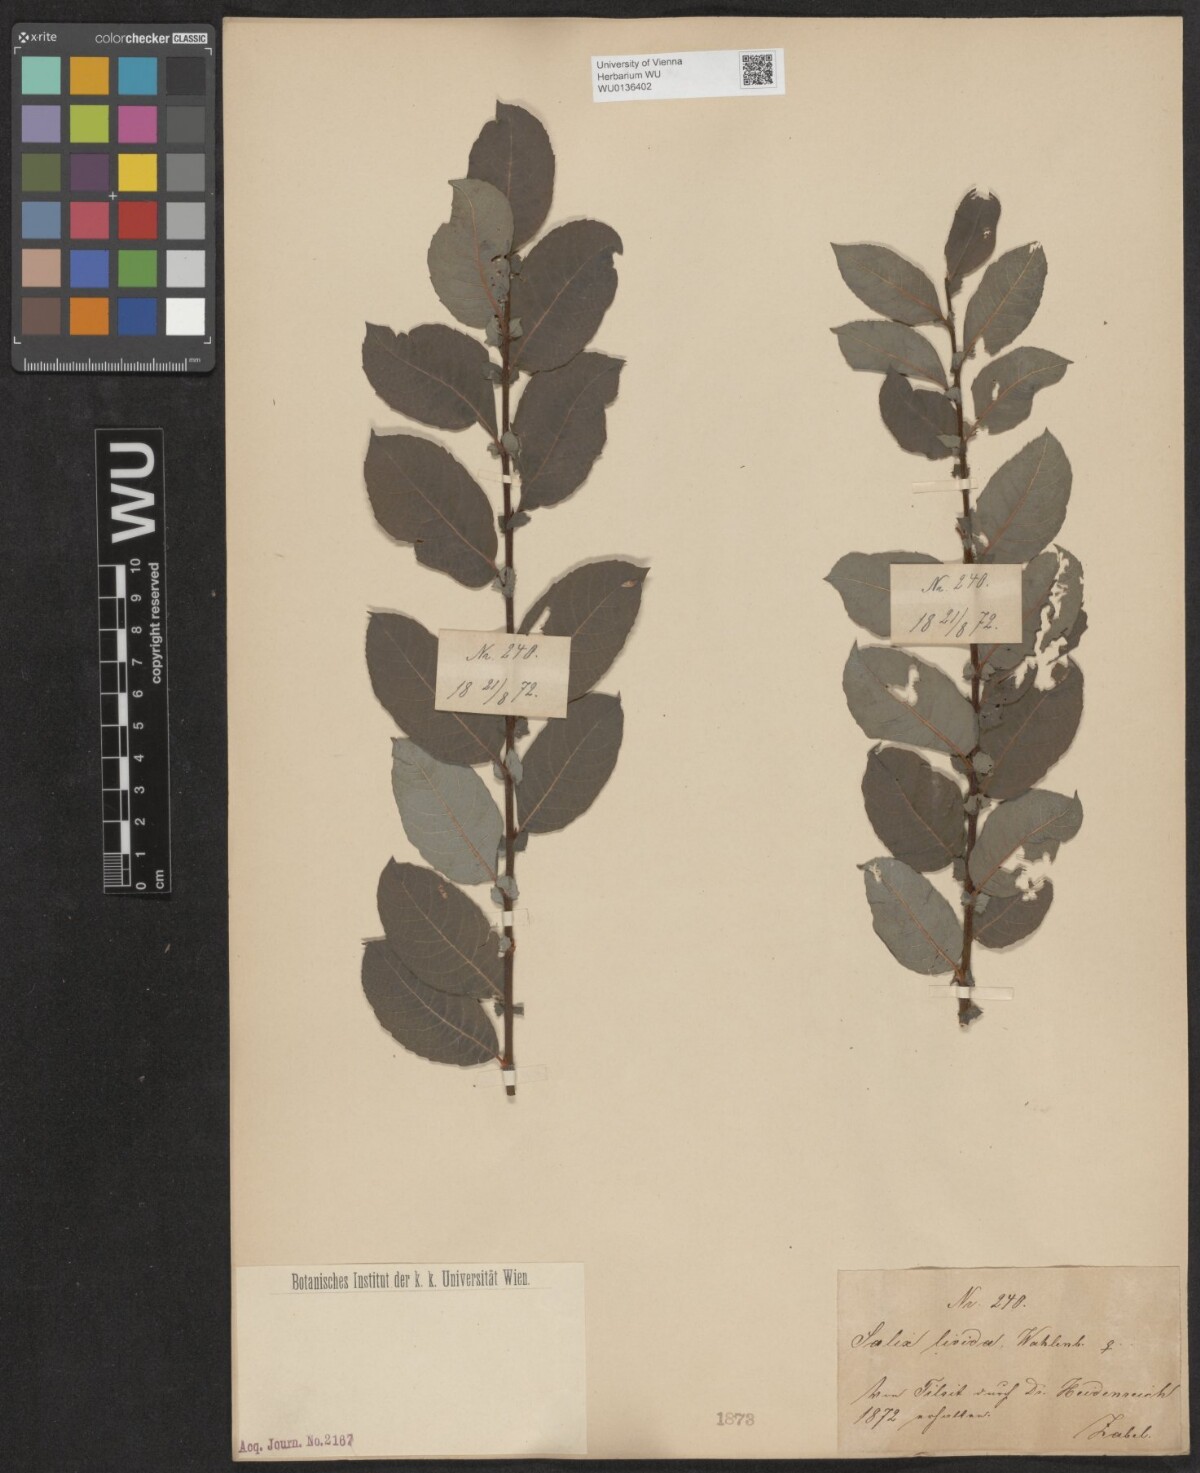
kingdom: Plantae
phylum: Tracheophyta
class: Magnoliopsida
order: Malpighiales
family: Salicaceae
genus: Salix
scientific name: Salix lanata
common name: Woolly willow
